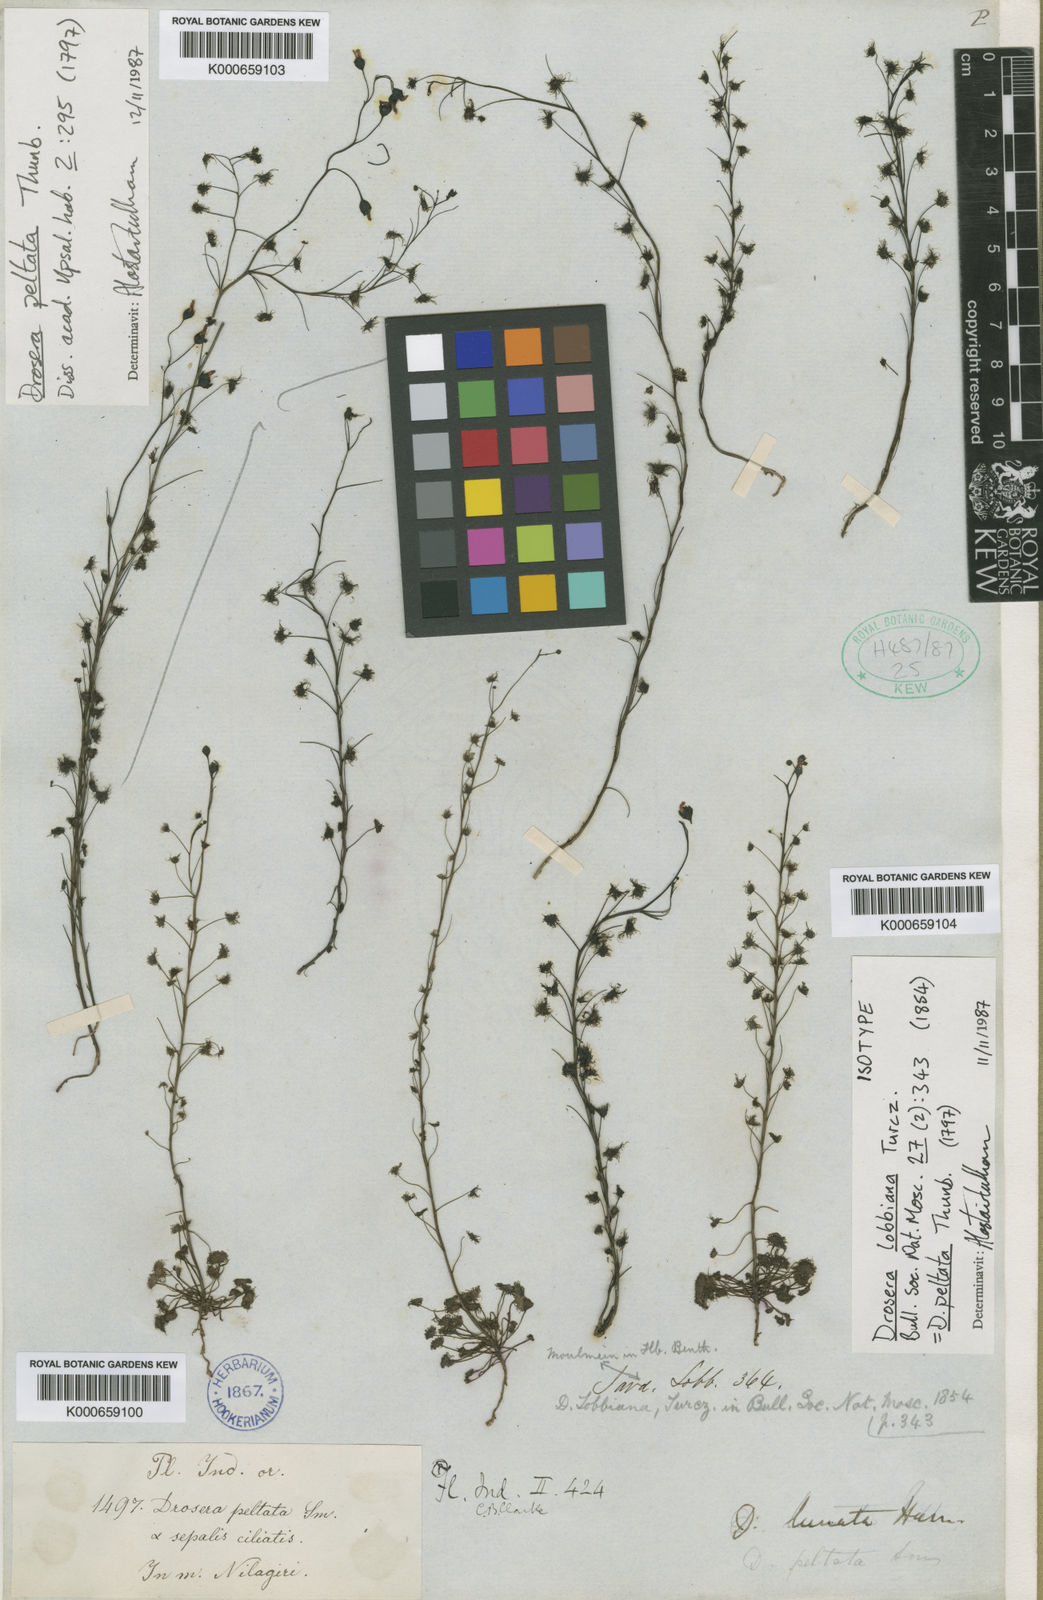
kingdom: Plantae
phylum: Tracheophyta
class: Magnoliopsida
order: Caryophyllales
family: Droseraceae
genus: Drosera
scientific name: Drosera peltata
